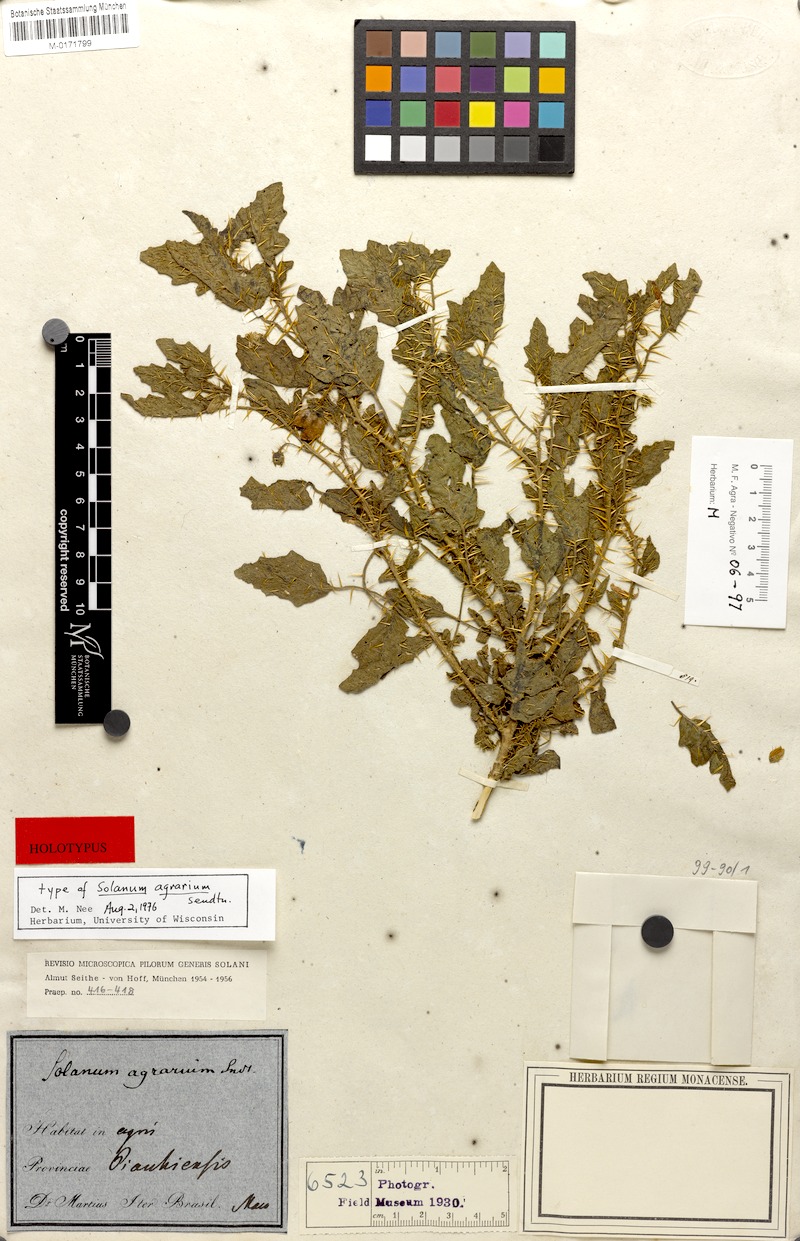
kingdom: Plantae
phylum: Tracheophyta
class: Magnoliopsida
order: Solanales
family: Solanaceae
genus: Solanum
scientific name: Solanum agrarium
